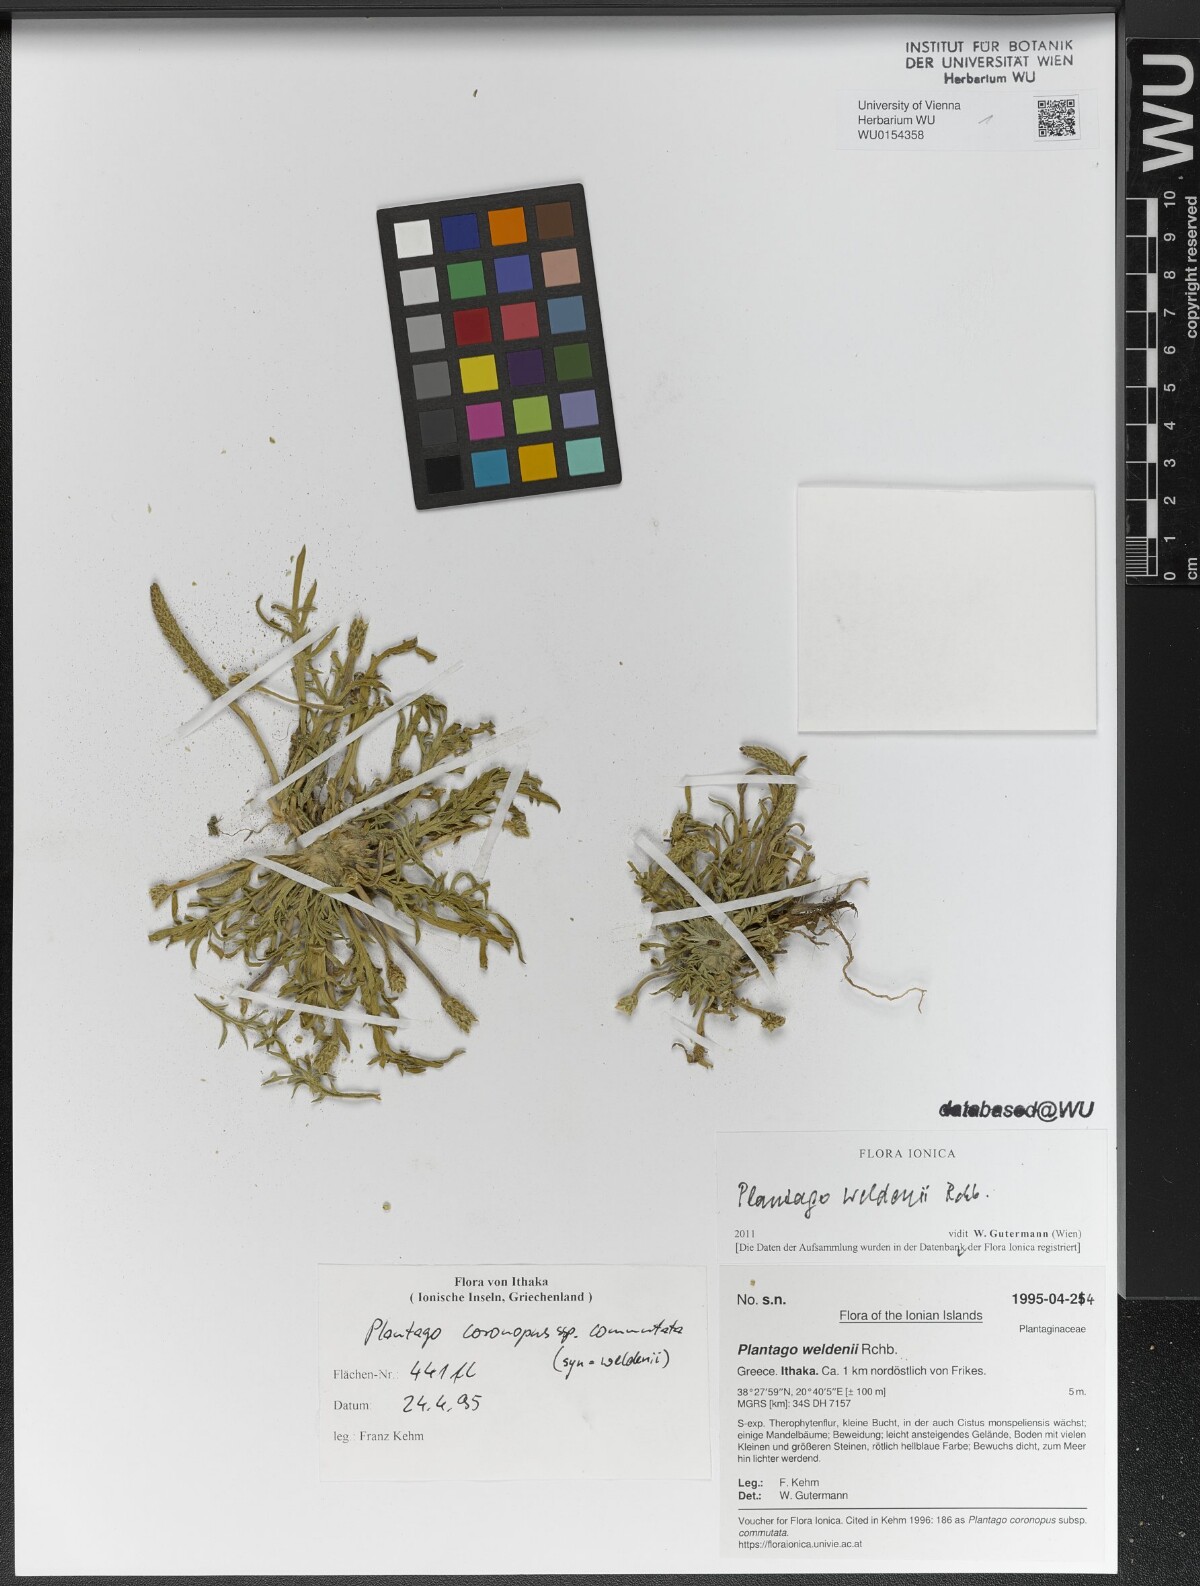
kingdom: Plantae
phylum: Tracheophyta
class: Magnoliopsida
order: Lamiales
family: Plantaginaceae
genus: Plantago
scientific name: Plantago weldenii
